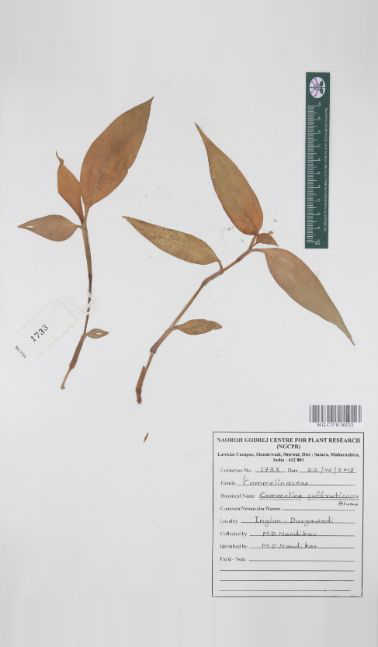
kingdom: Plantae
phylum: Tracheophyta
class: Liliopsida
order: Commelinales
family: Commelinaceae
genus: Commelina
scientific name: Commelina suffruticosa
